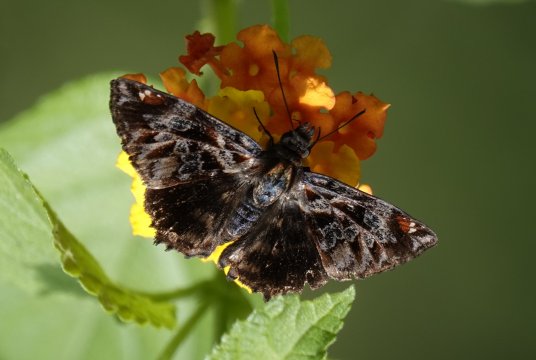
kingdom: Animalia
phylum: Arthropoda
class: Insecta
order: Lepidoptera
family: Hesperiidae
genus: Noctuana
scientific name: Noctuana stator
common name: Red-studded Skipper
